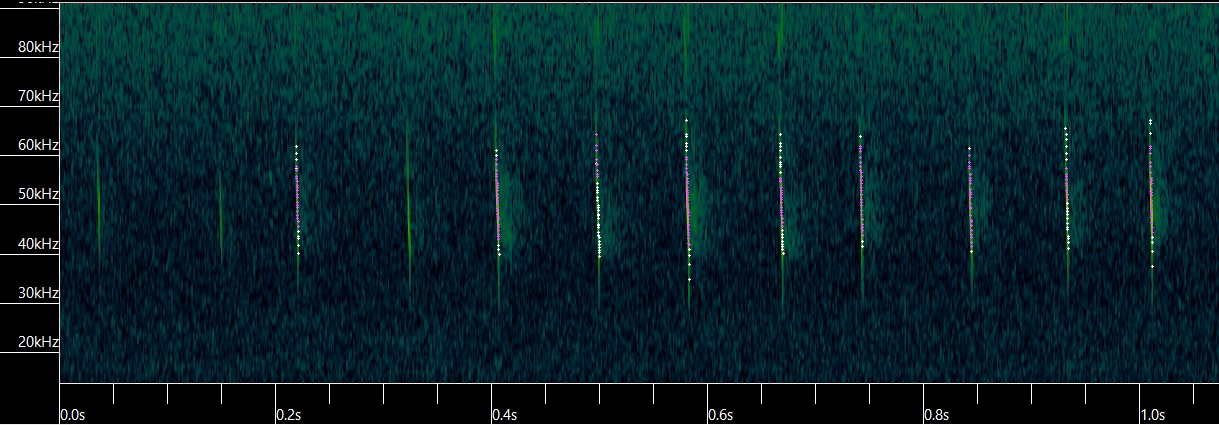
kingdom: Animalia
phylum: Chordata
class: Mammalia
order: Chiroptera
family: Vespertilionidae
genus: Myotis
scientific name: Myotis daubentonii
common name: Vandflagermus
